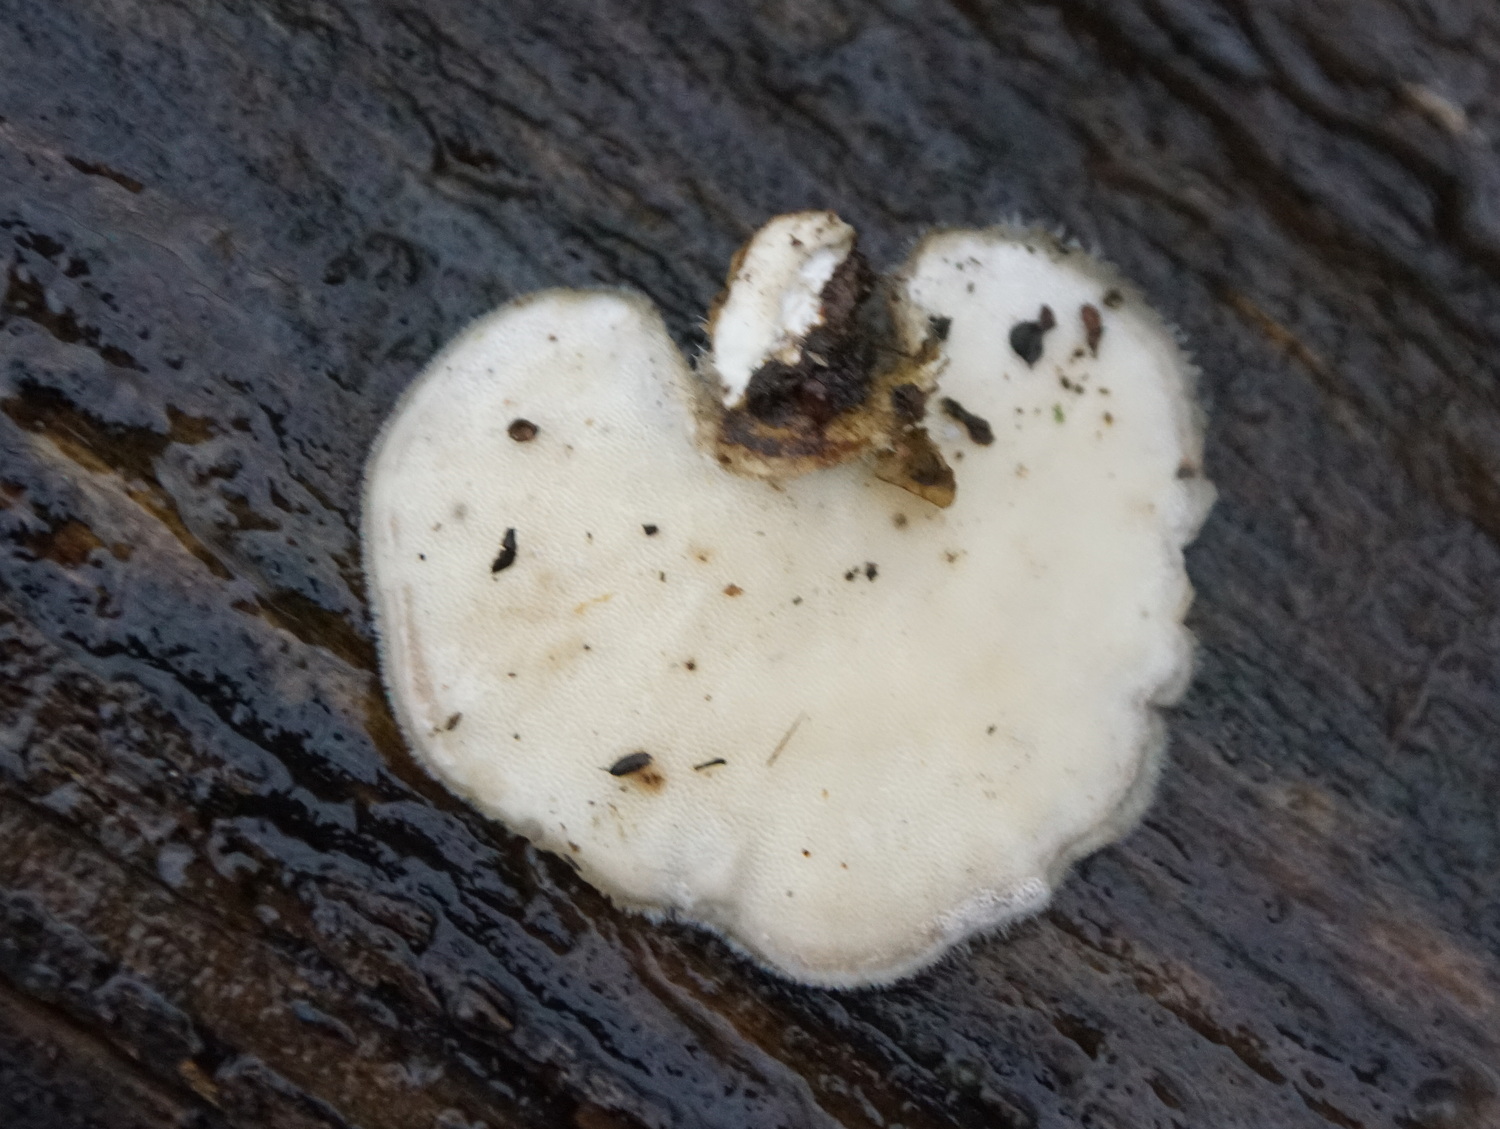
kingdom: Fungi
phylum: Basidiomycota
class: Agaricomycetes
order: Polyporales
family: Polyporaceae
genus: Trametes
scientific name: Trametes hirsuta
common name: håret læderporesvamp
